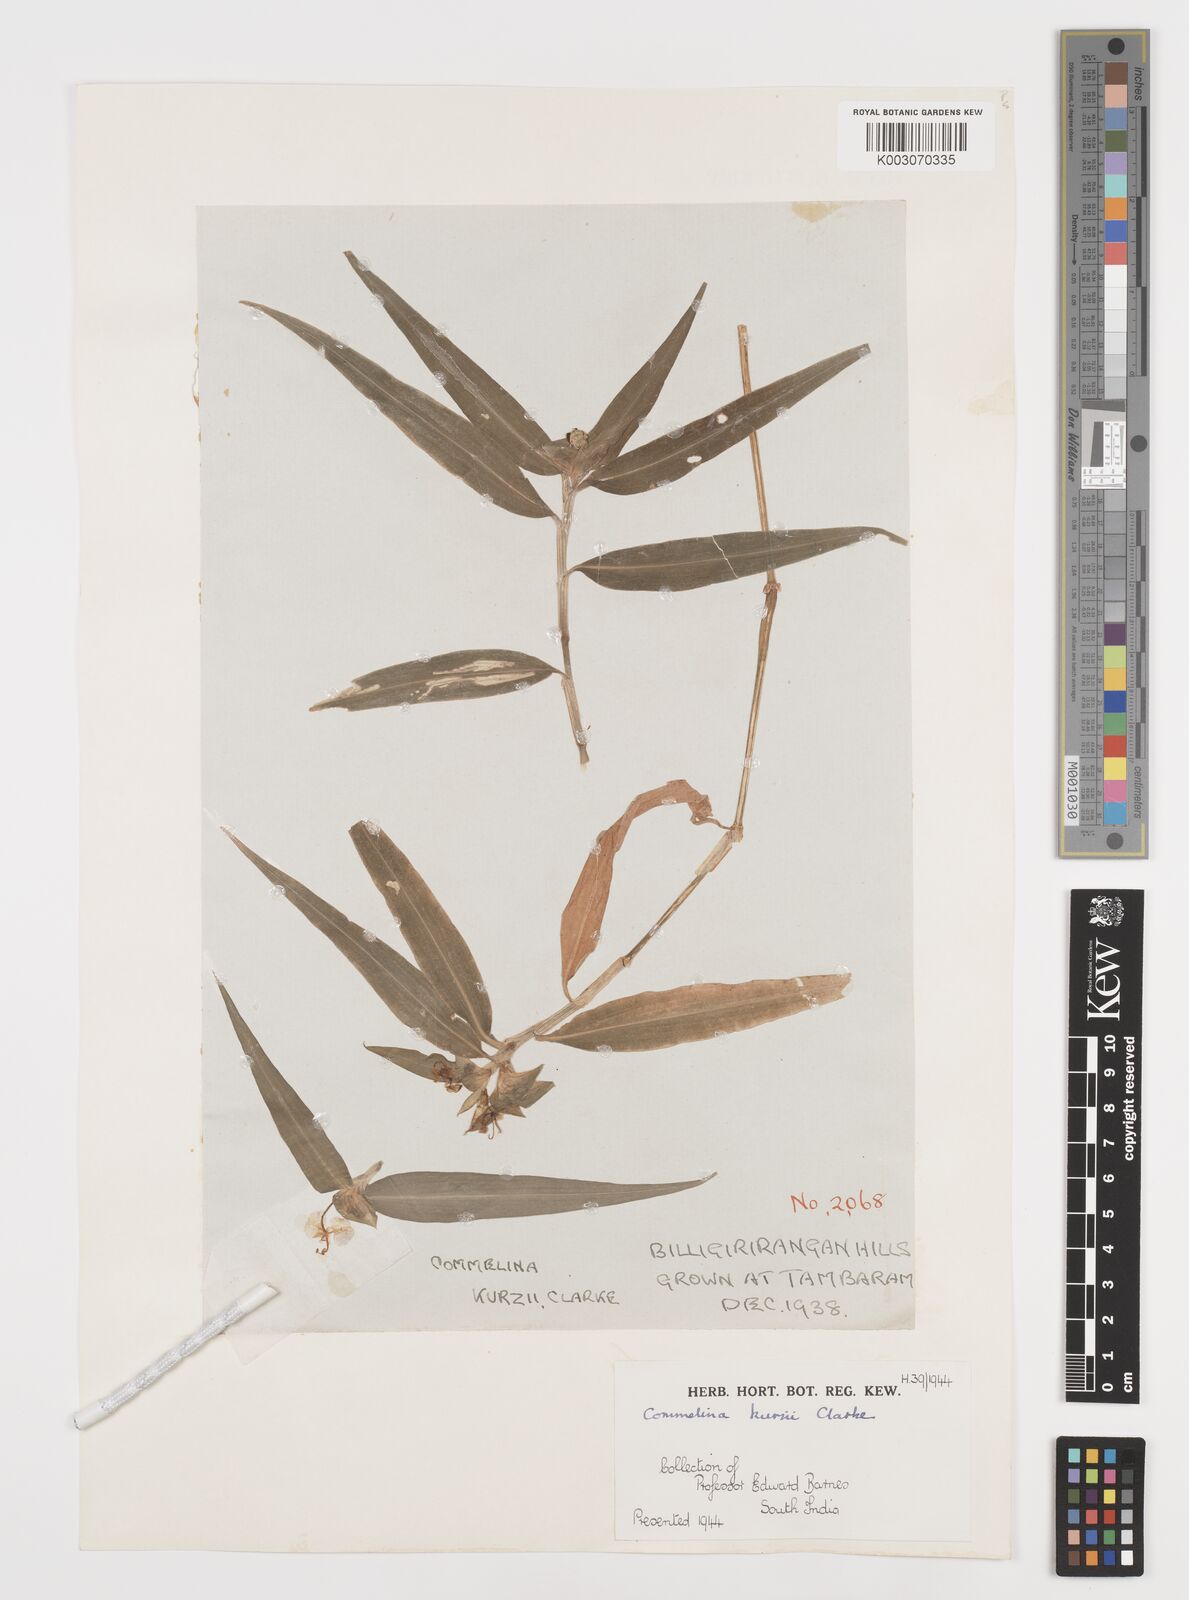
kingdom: Plantae
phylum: Tracheophyta
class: Liliopsida
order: Commelinales
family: Commelinaceae
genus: Commelina
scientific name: Commelina undulata
